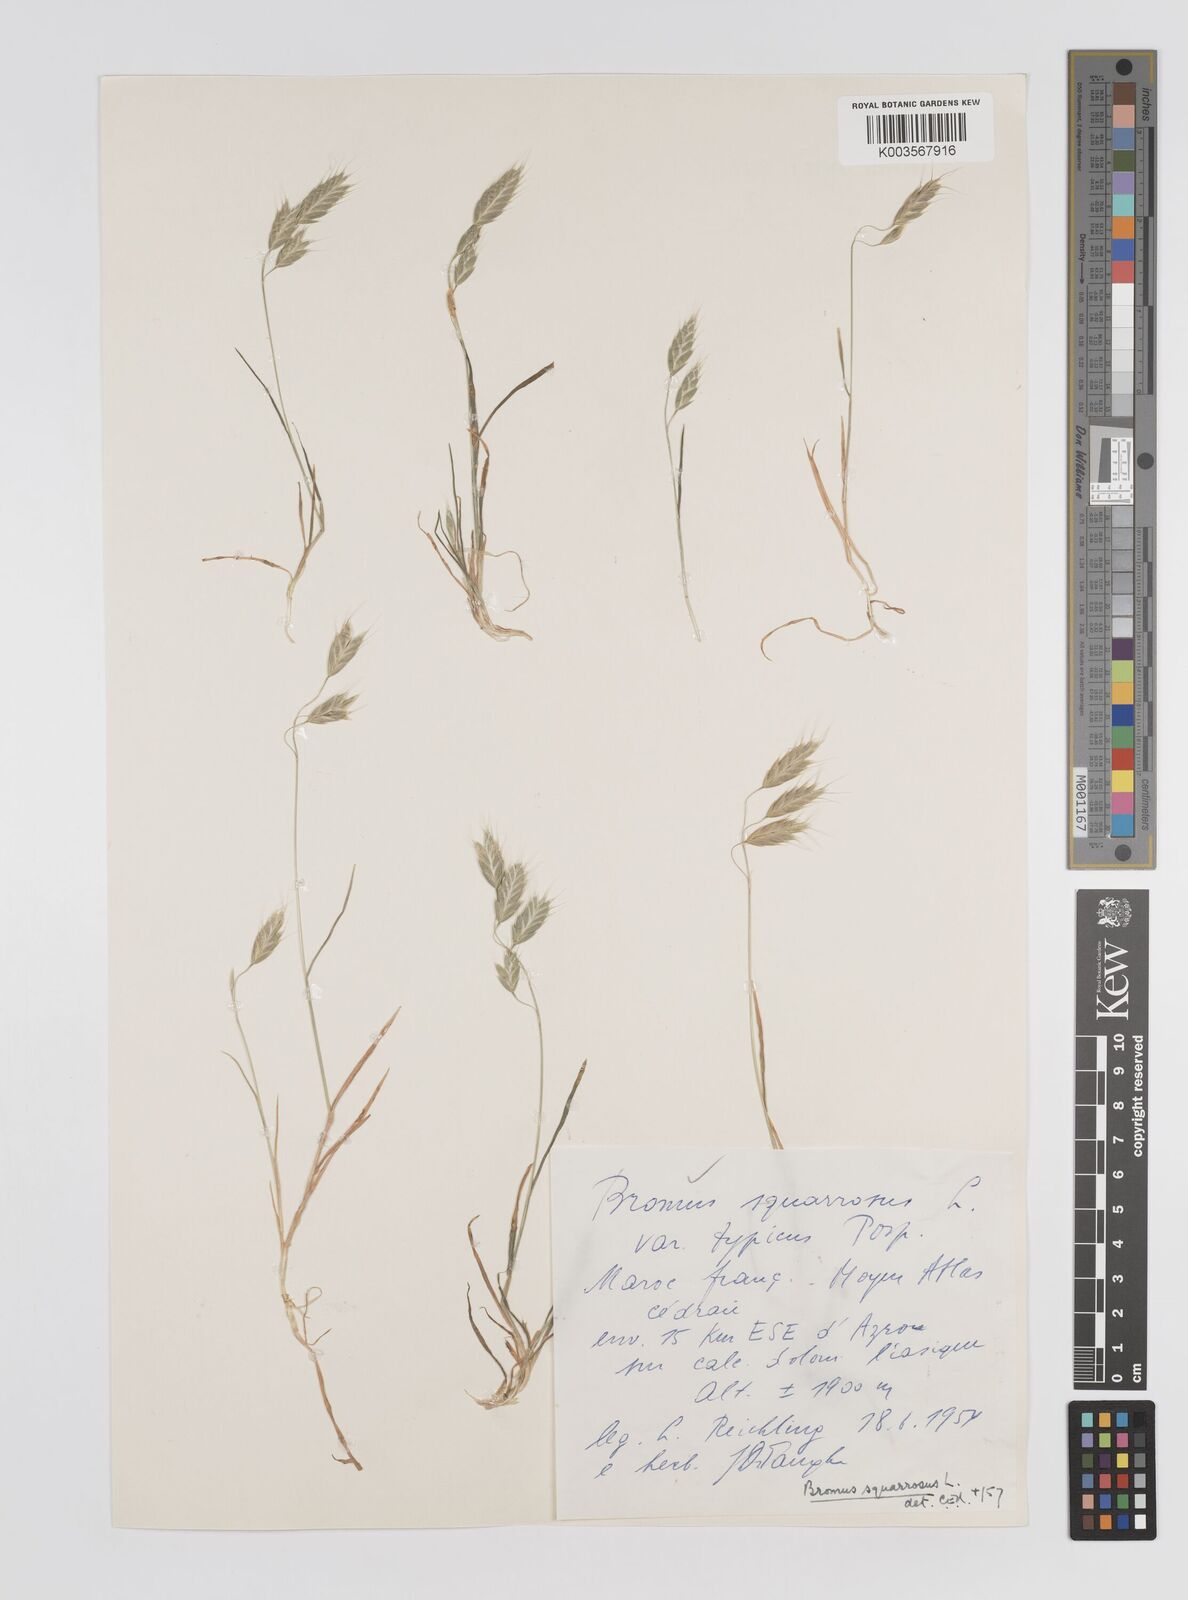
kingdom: Plantae
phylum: Tracheophyta
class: Liliopsida
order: Poales
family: Poaceae
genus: Bromus
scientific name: Bromus squarrosus
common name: Corn brome
